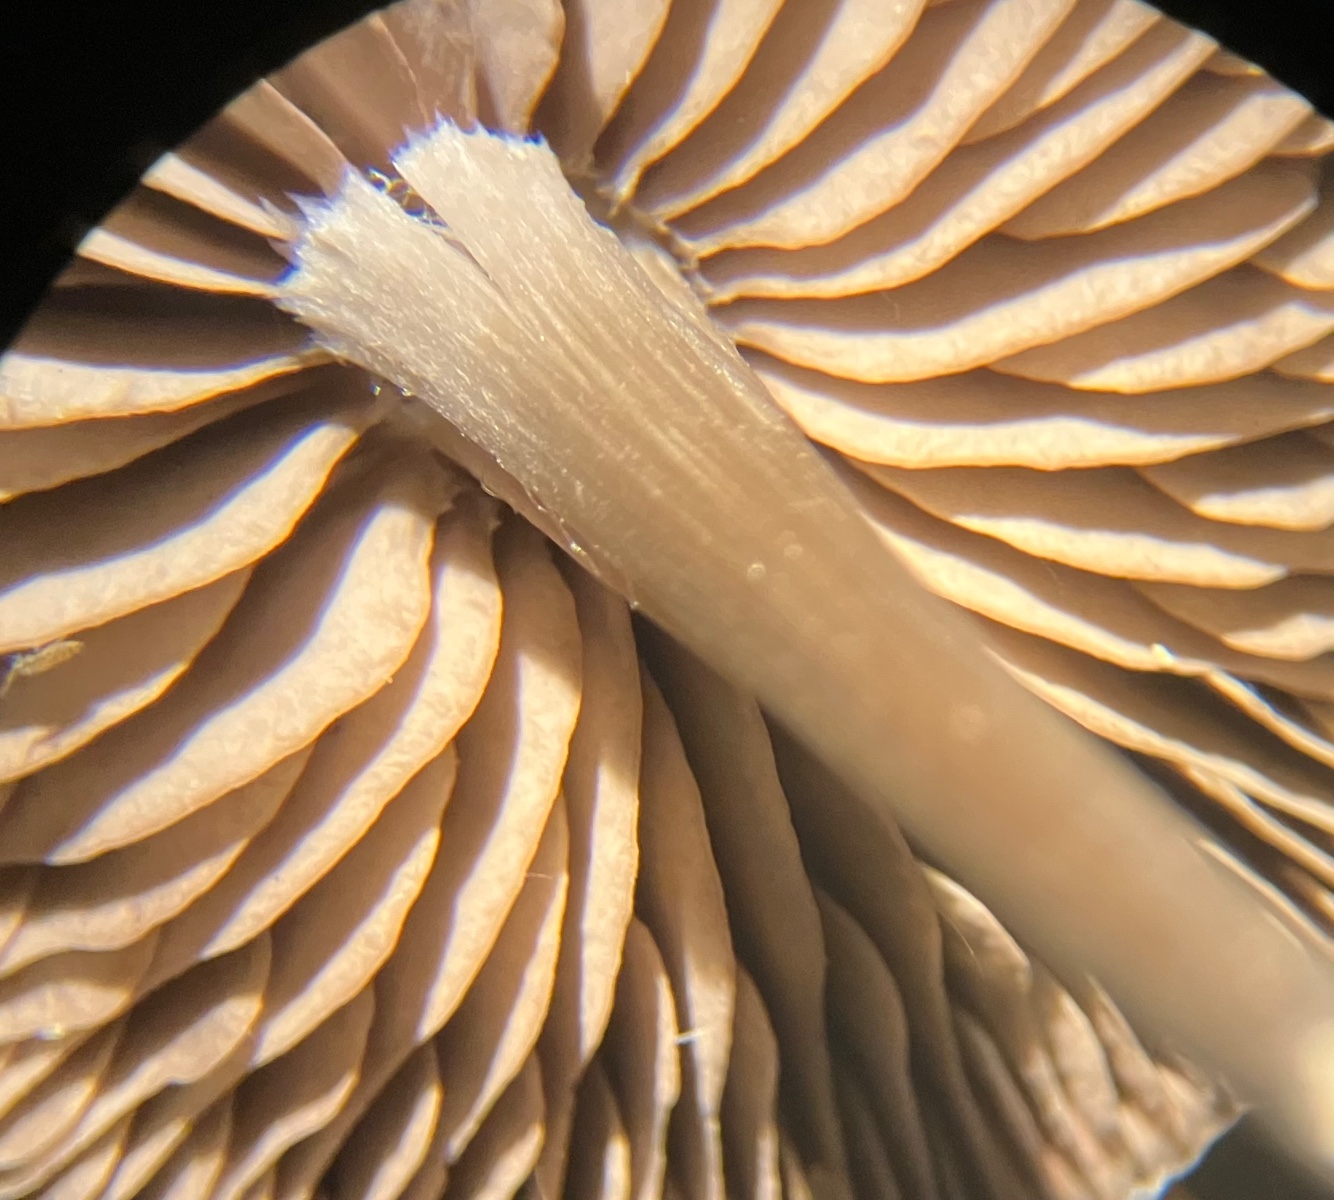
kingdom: Fungi
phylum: Basidiomycota
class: Agaricomycetes
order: Agaricales
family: Entolomataceae
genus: Entoloma
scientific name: Entoloma sericeum
